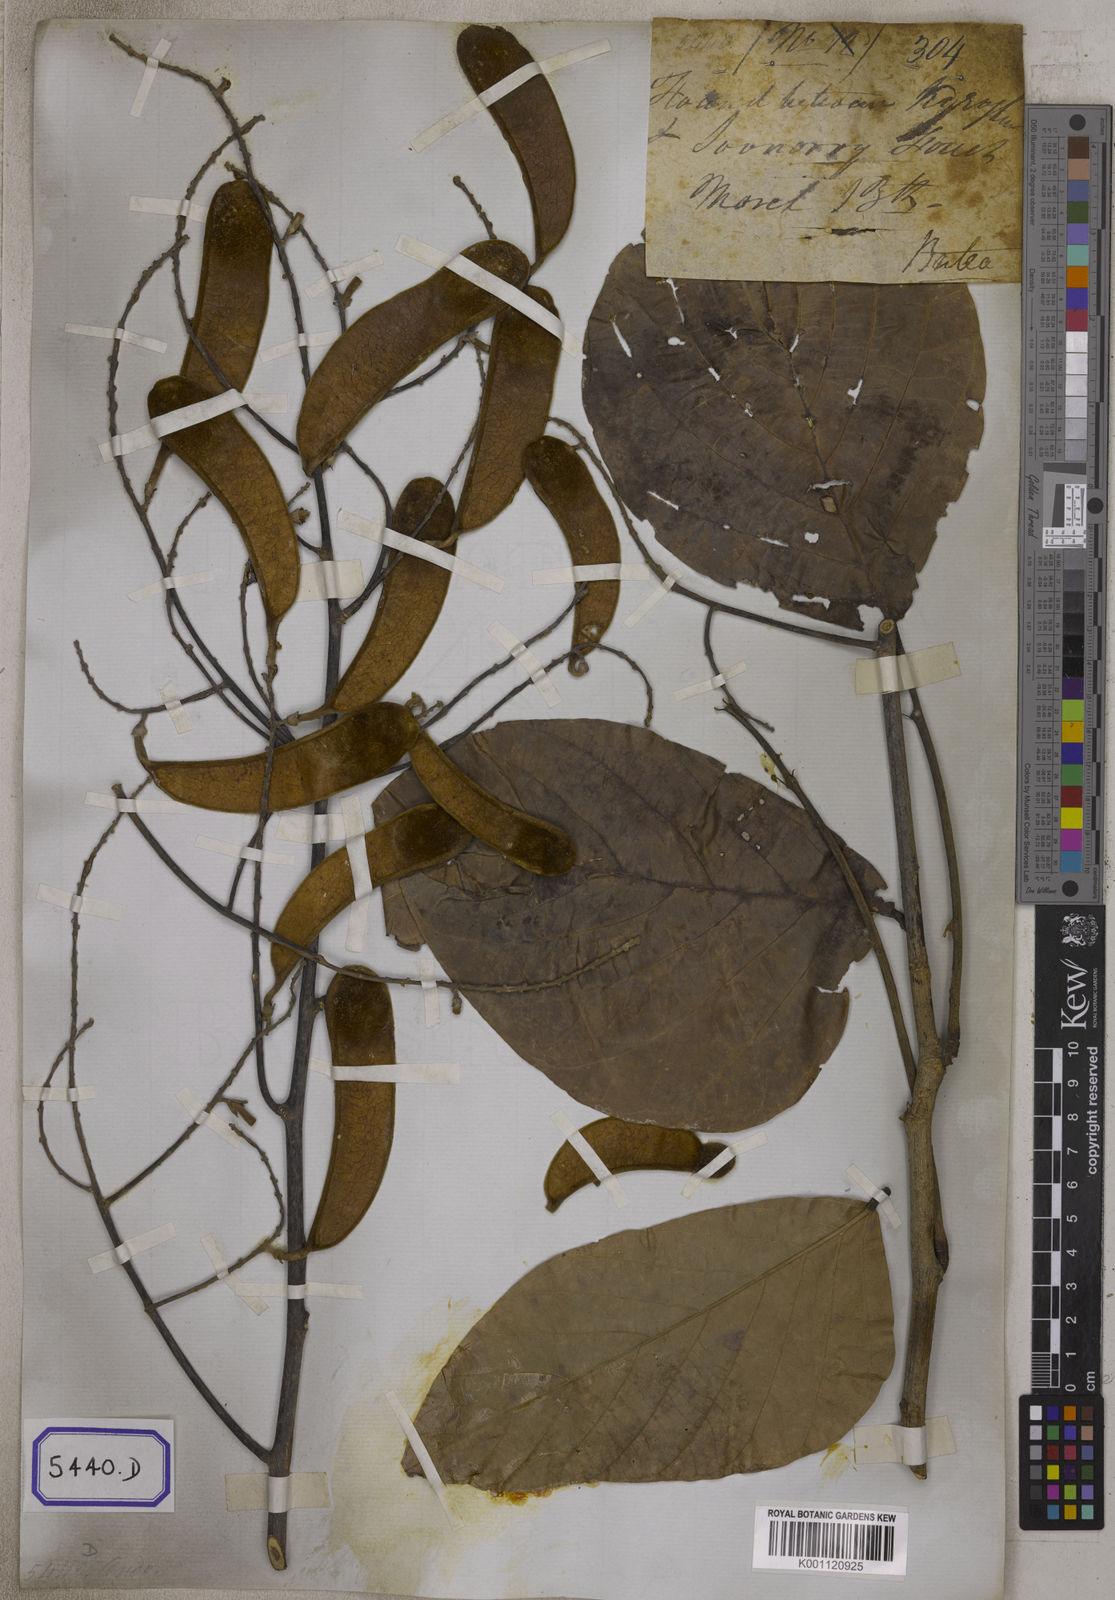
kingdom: Plantae
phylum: Tracheophyta
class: Magnoliopsida
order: Fabales
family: Fabaceae
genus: Butea
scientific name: Butea
